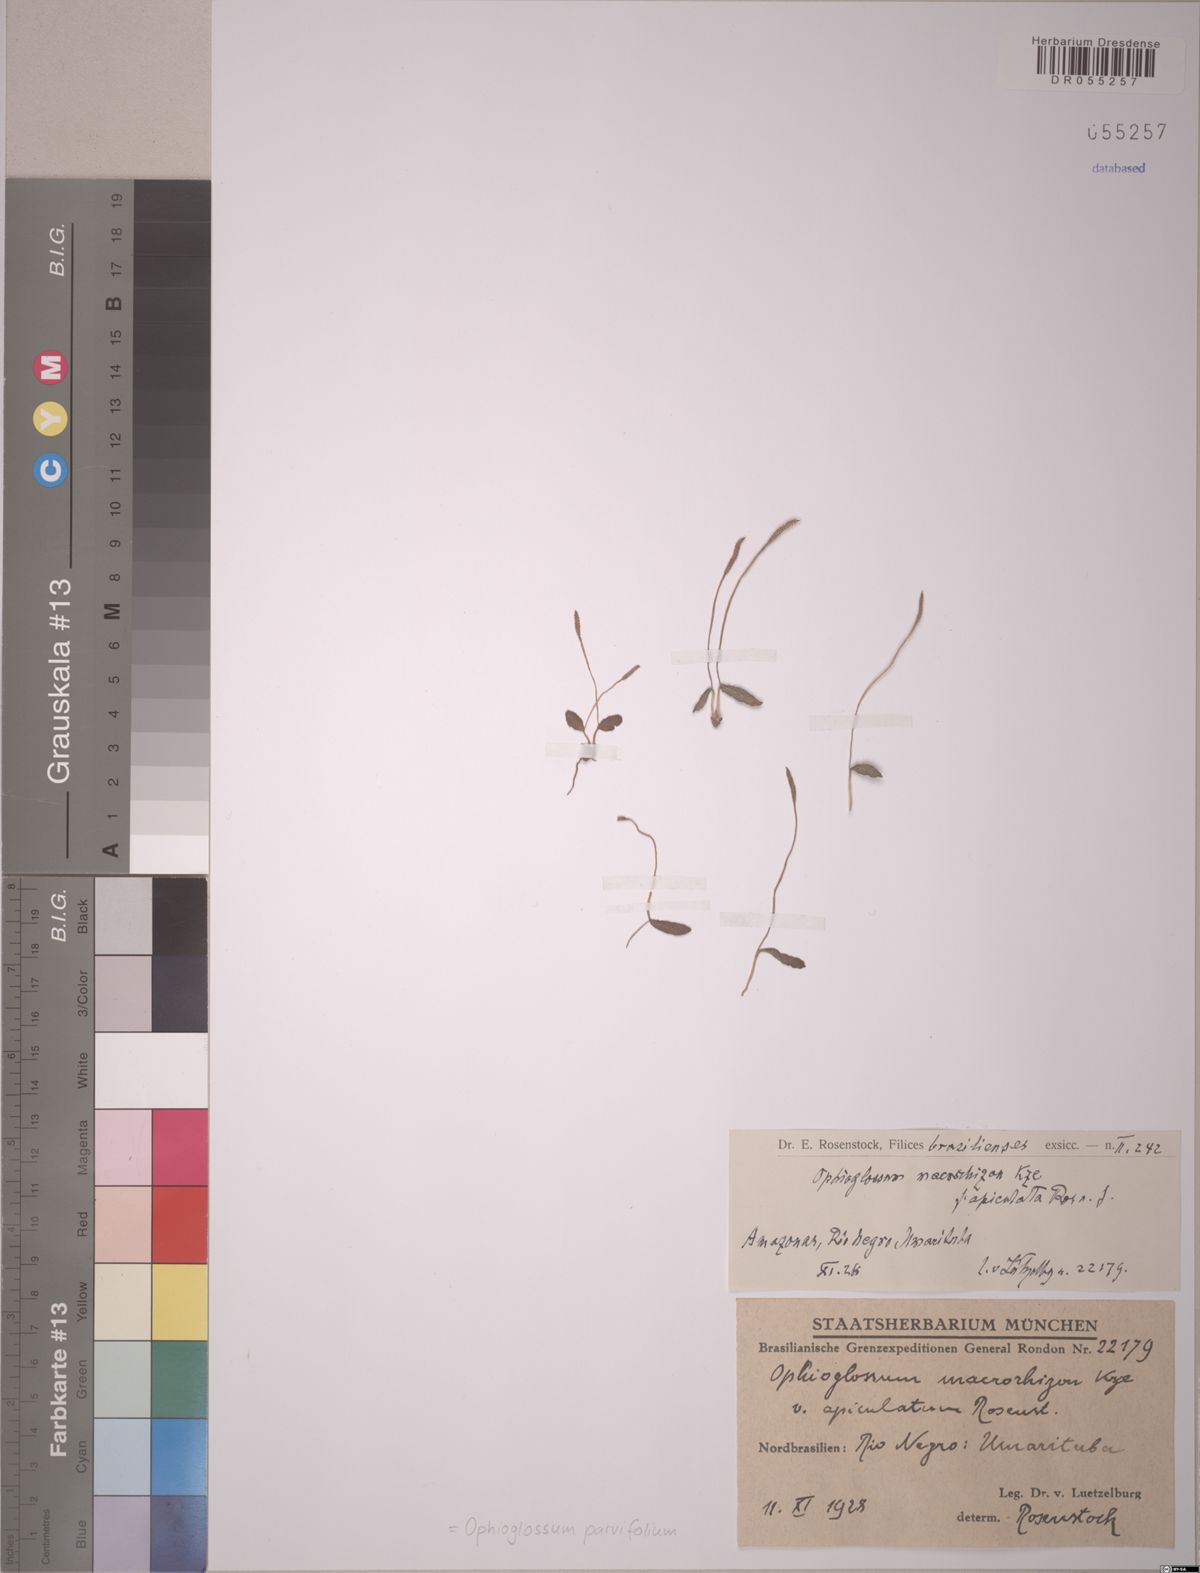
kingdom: Plantae
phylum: Tracheophyta
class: Polypodiopsida
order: Ophioglossales
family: Ophioglossaceae
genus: Ophioglossum
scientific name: Ophioglossum parvifolium
